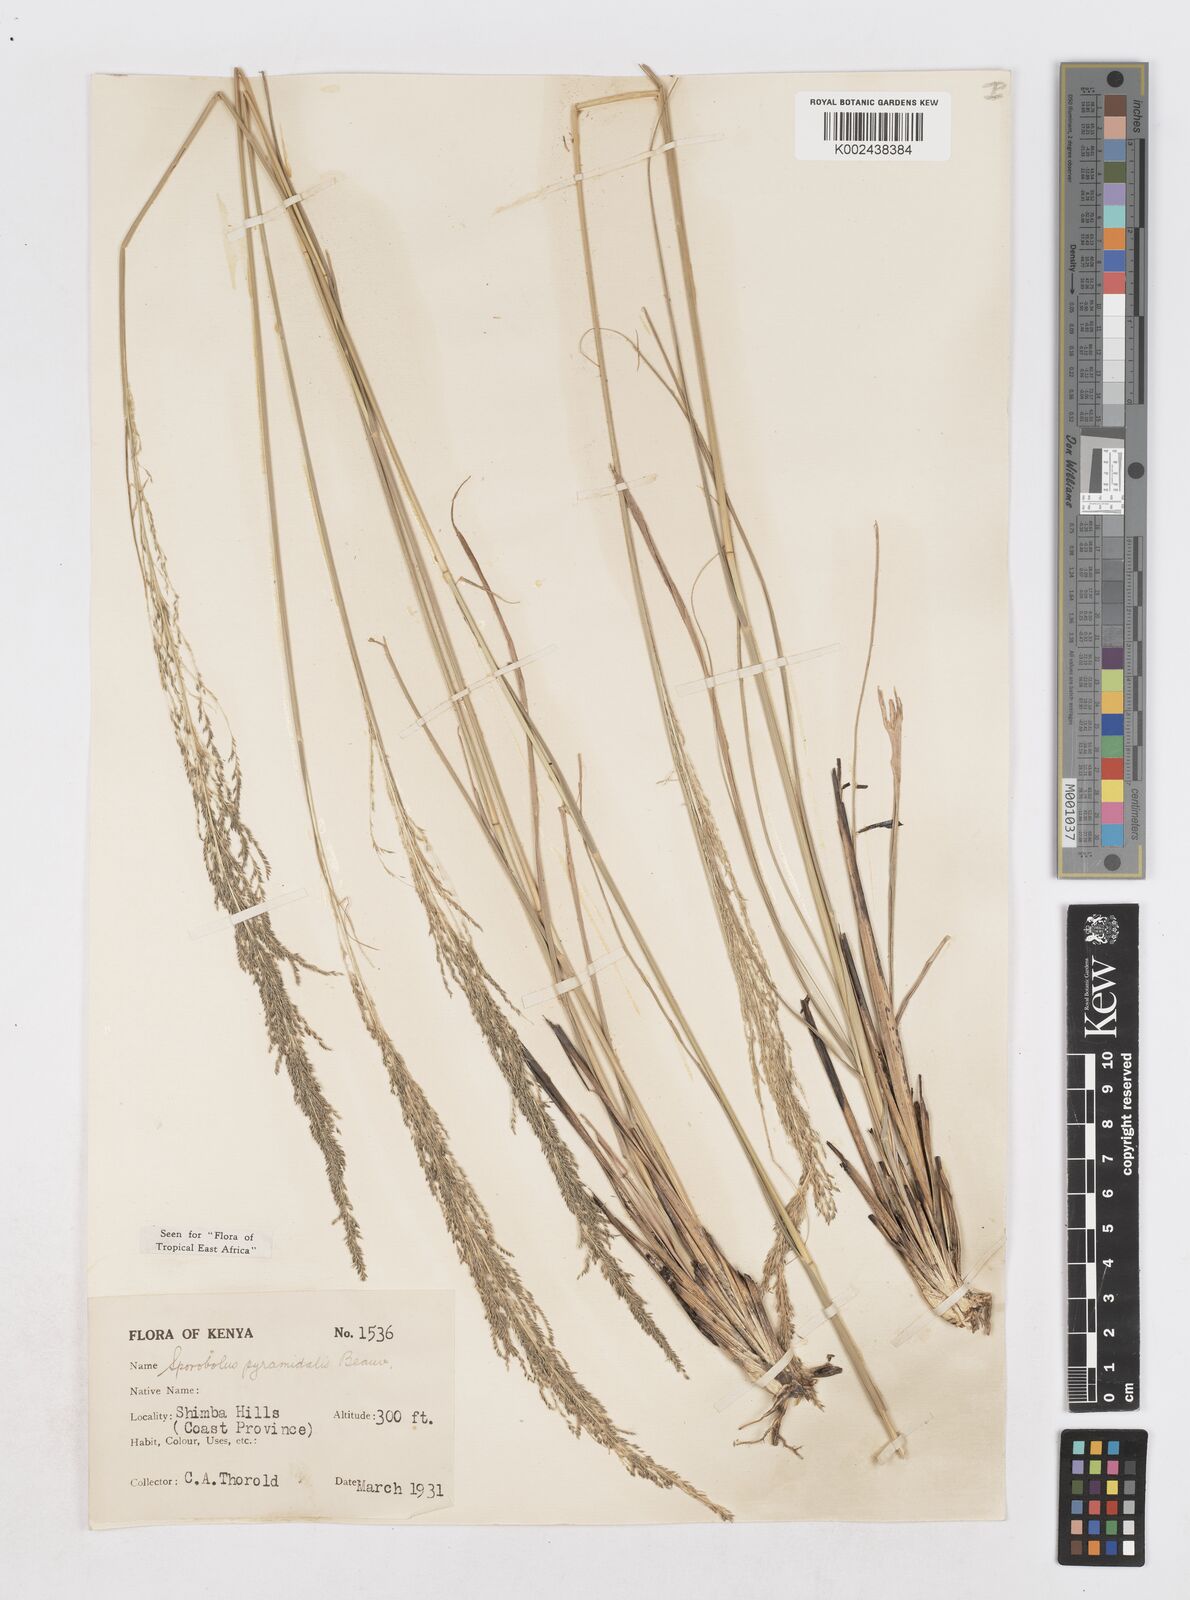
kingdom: Plantae
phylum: Tracheophyta
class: Liliopsida
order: Poales
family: Poaceae
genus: Sporobolus
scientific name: Sporobolus pyramidalis
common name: West indian dropseed
